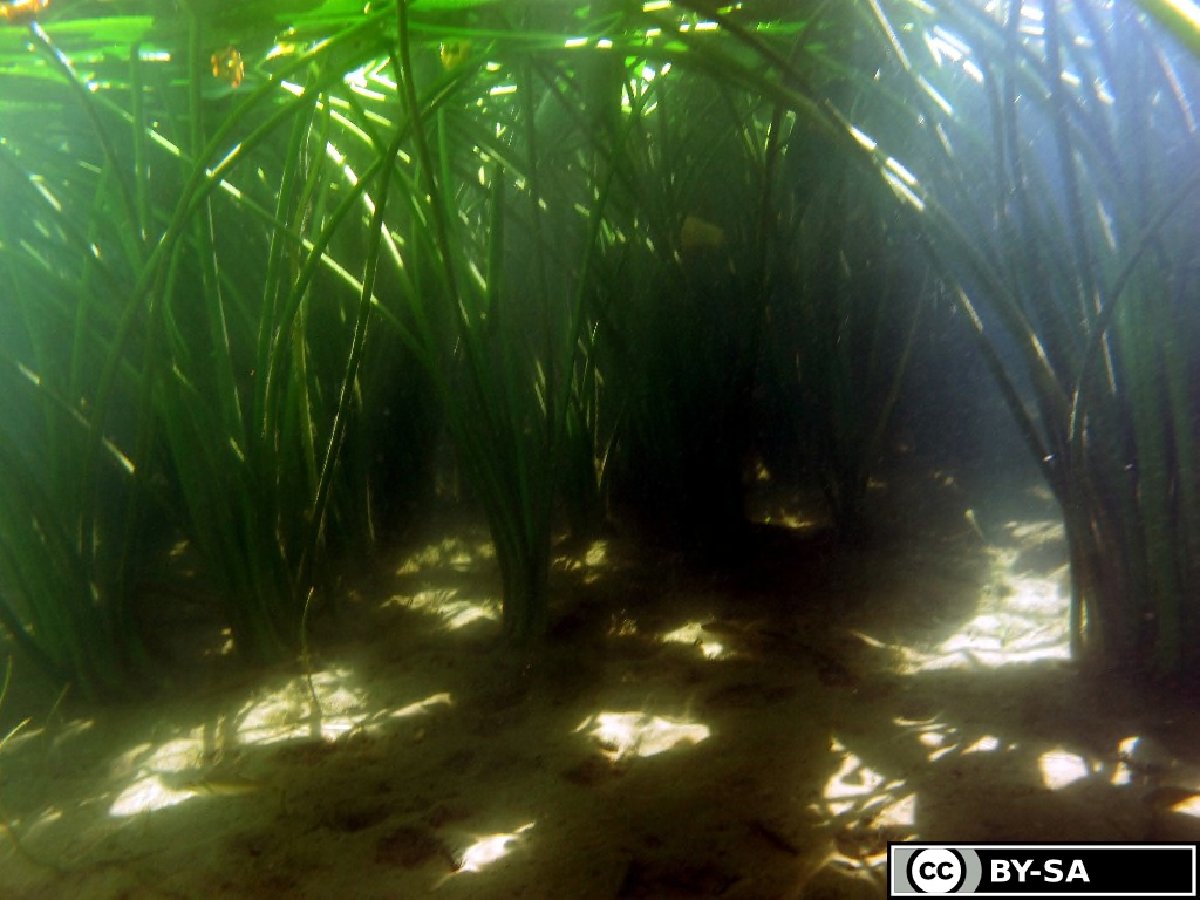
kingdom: Plantae
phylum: Tracheophyta
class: Magnoliopsida
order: Nymphaeales
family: Nymphaeaceae
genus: Nuphar
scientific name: Nuphar advena
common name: Spatter-dock
